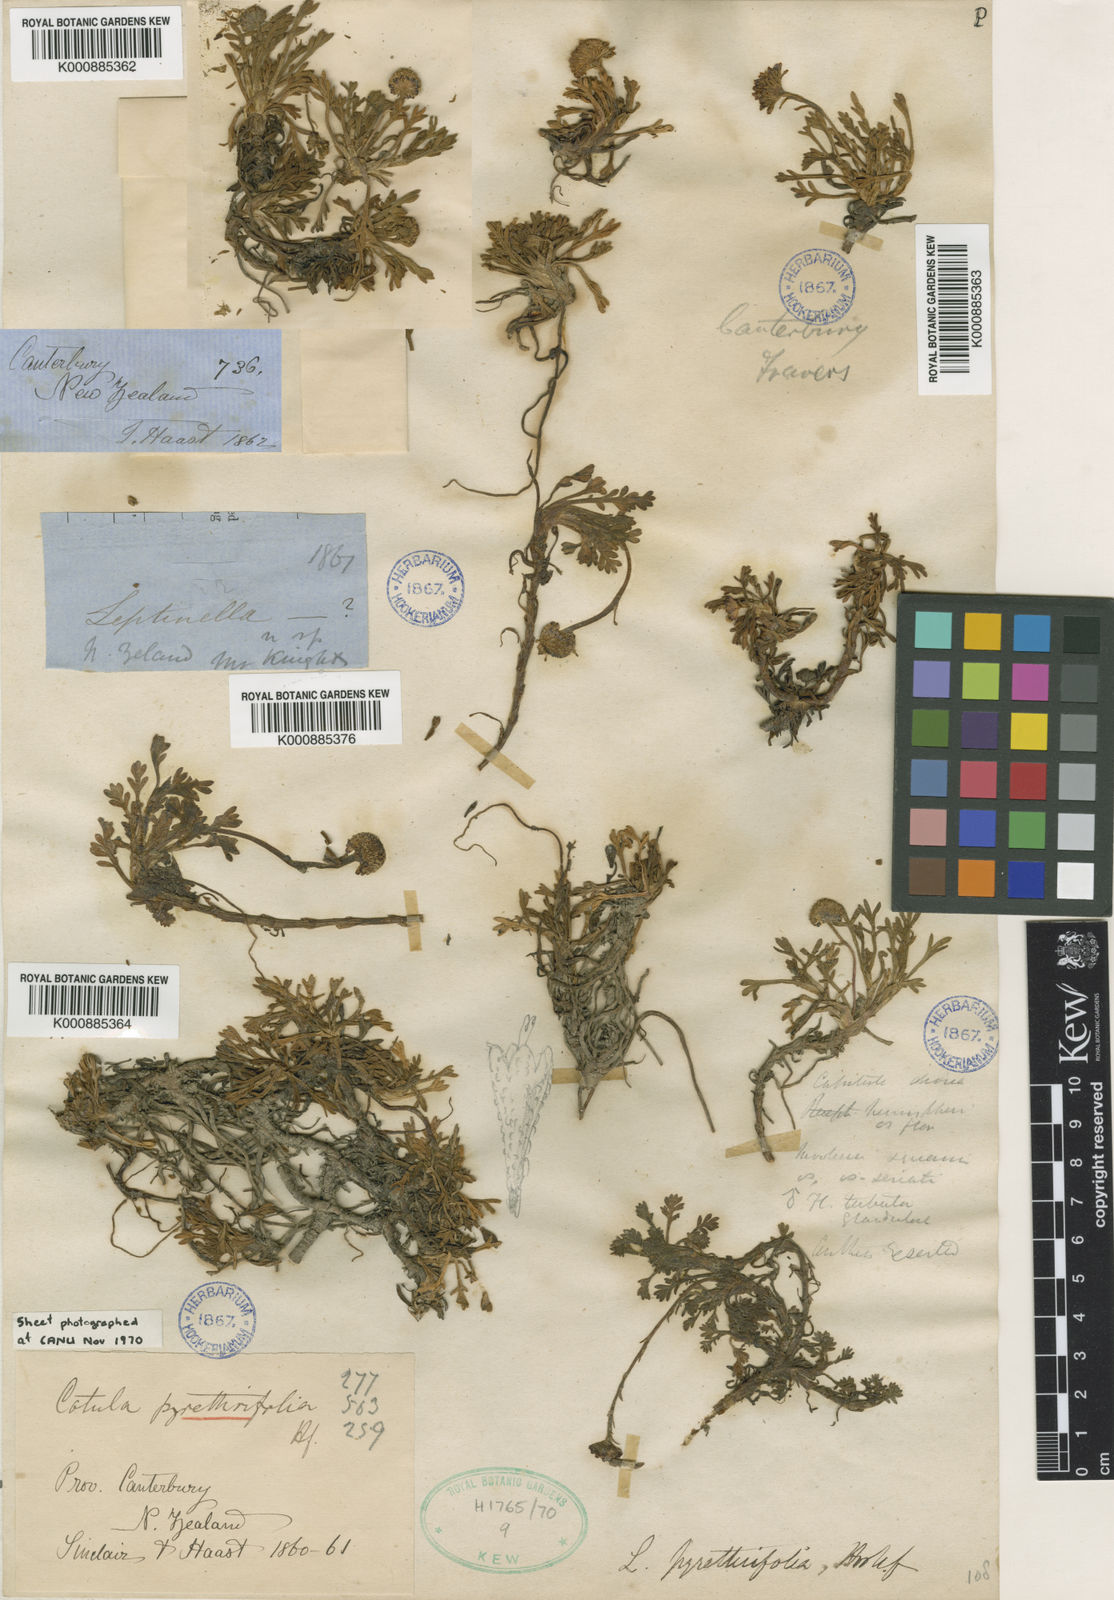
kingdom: Plantae
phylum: Tracheophyta
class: Magnoliopsida
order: Asterales
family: Asteraceae
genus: Leptinella
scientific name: Leptinella
